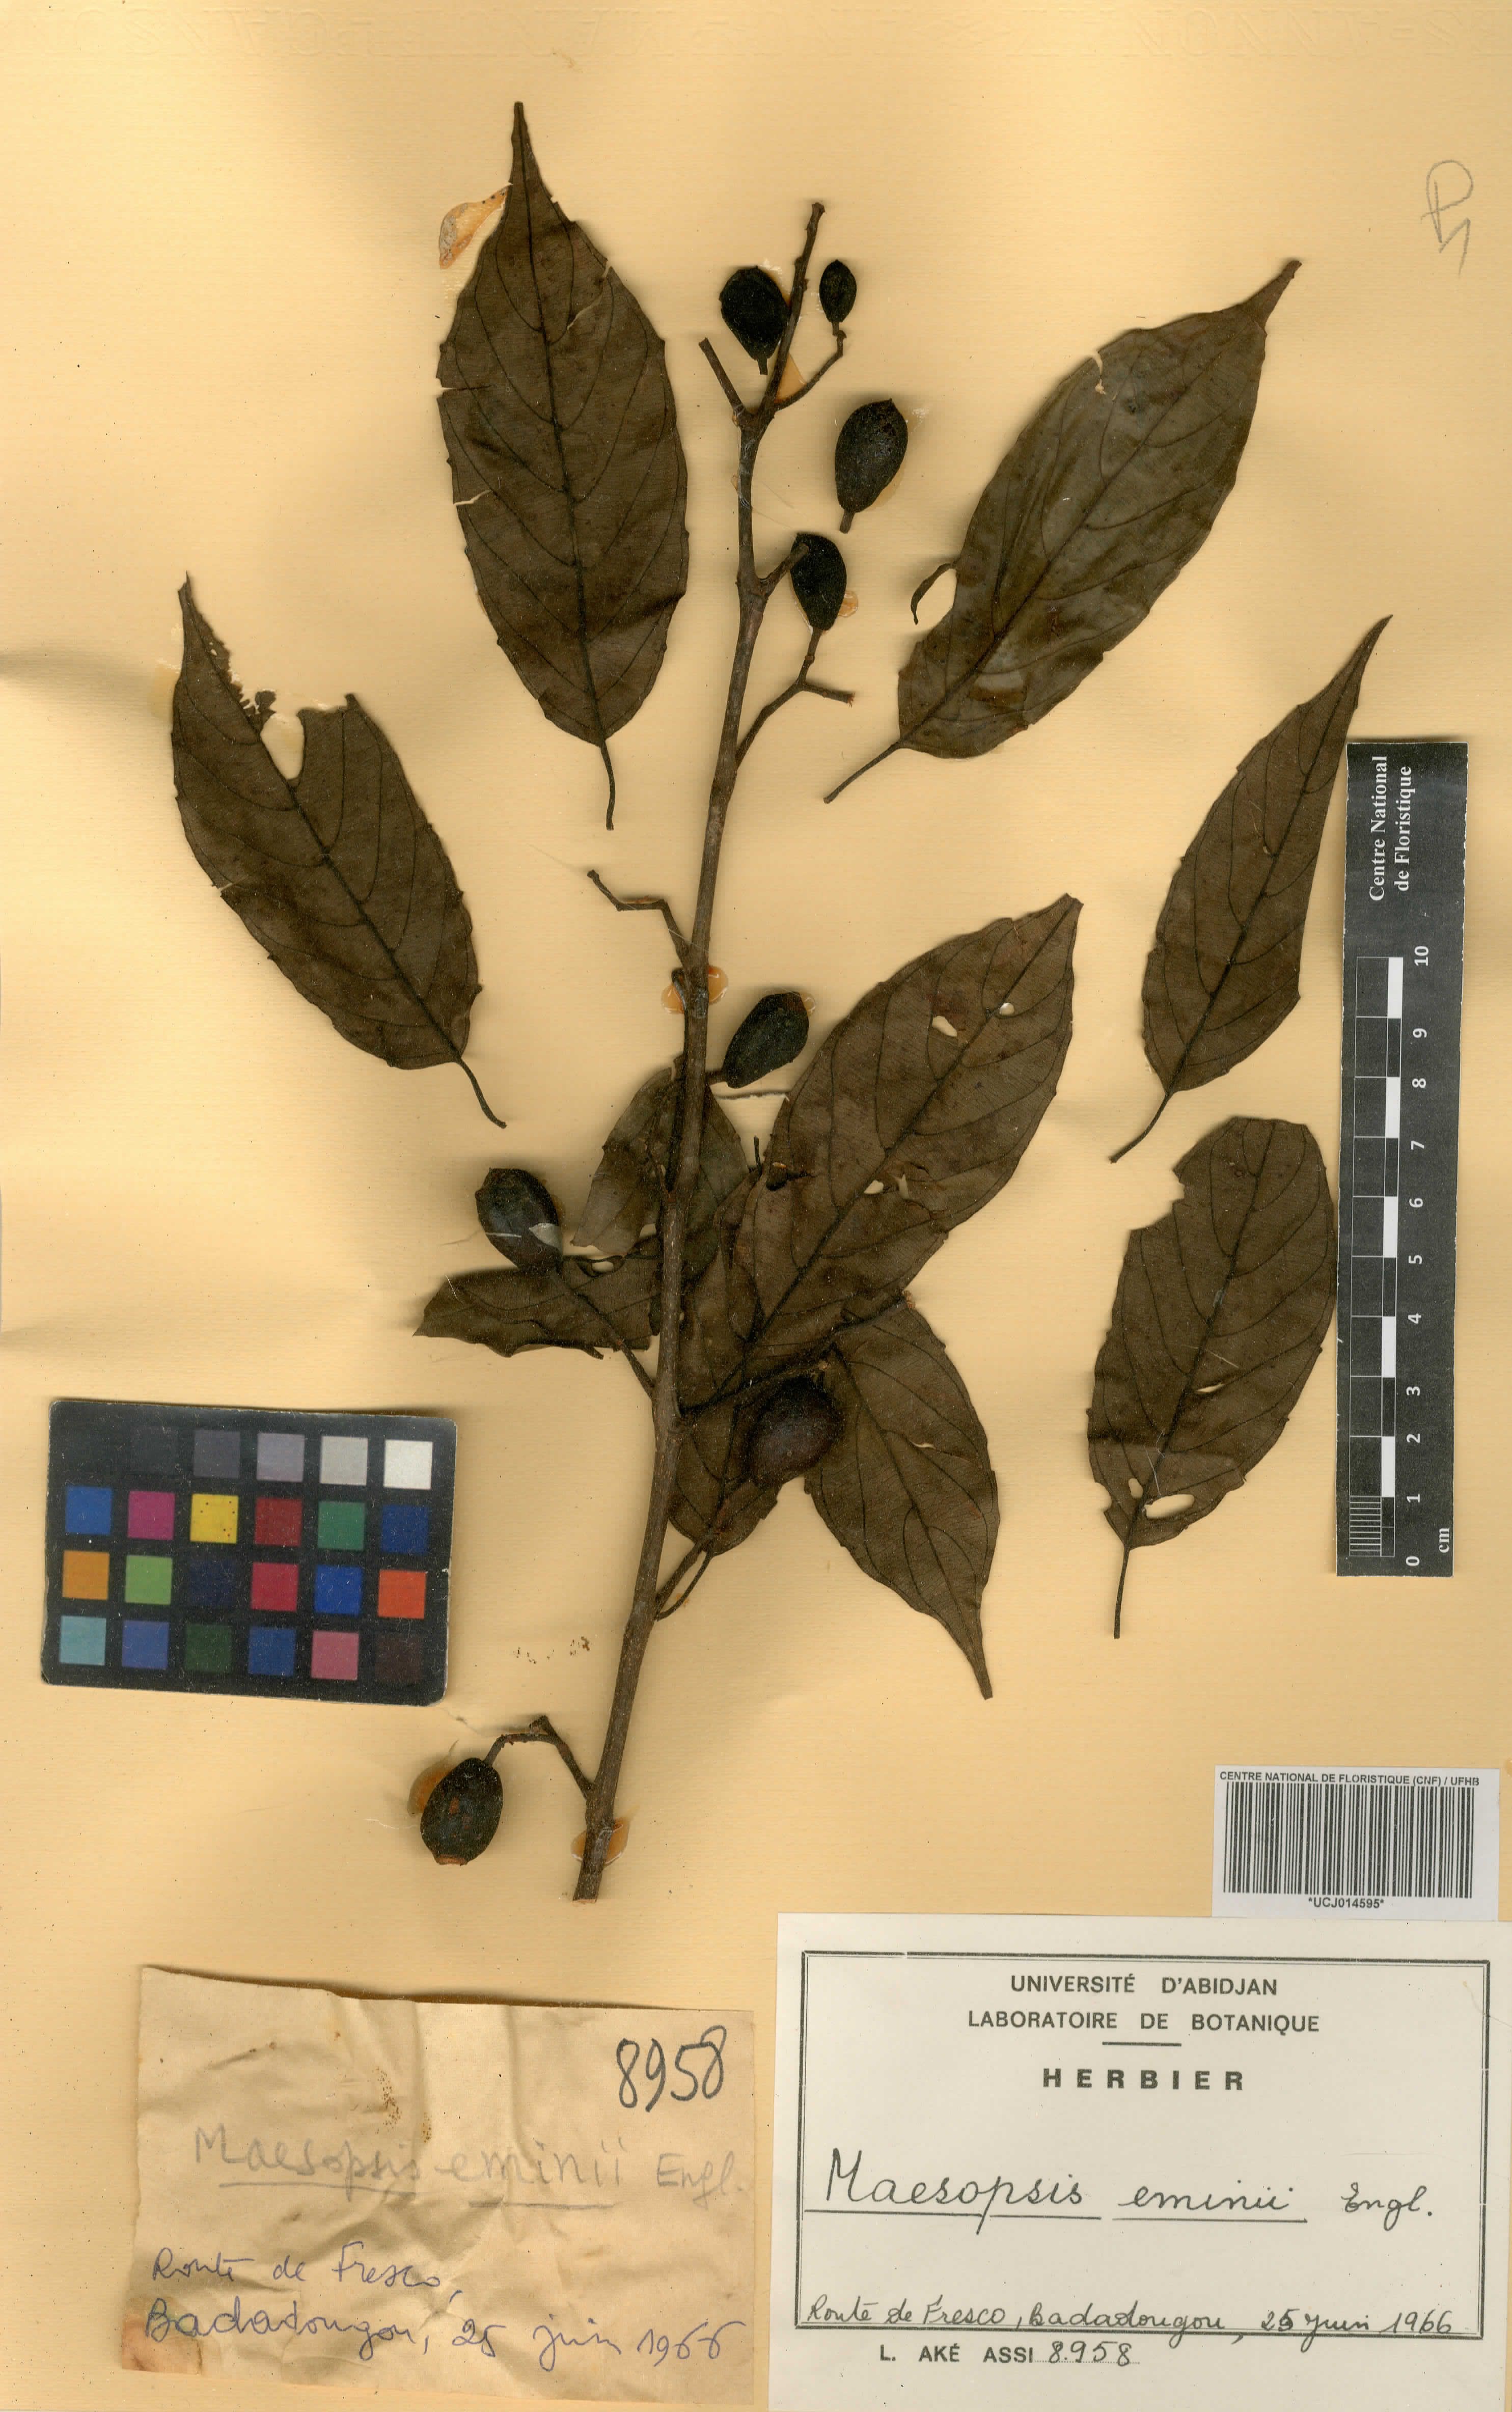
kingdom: Plantae
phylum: Tracheophyta
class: Magnoliopsida
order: Rosales
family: Rhamnaceae
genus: Maesopsis
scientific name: Maesopsis eminii
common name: Umbrella tree
